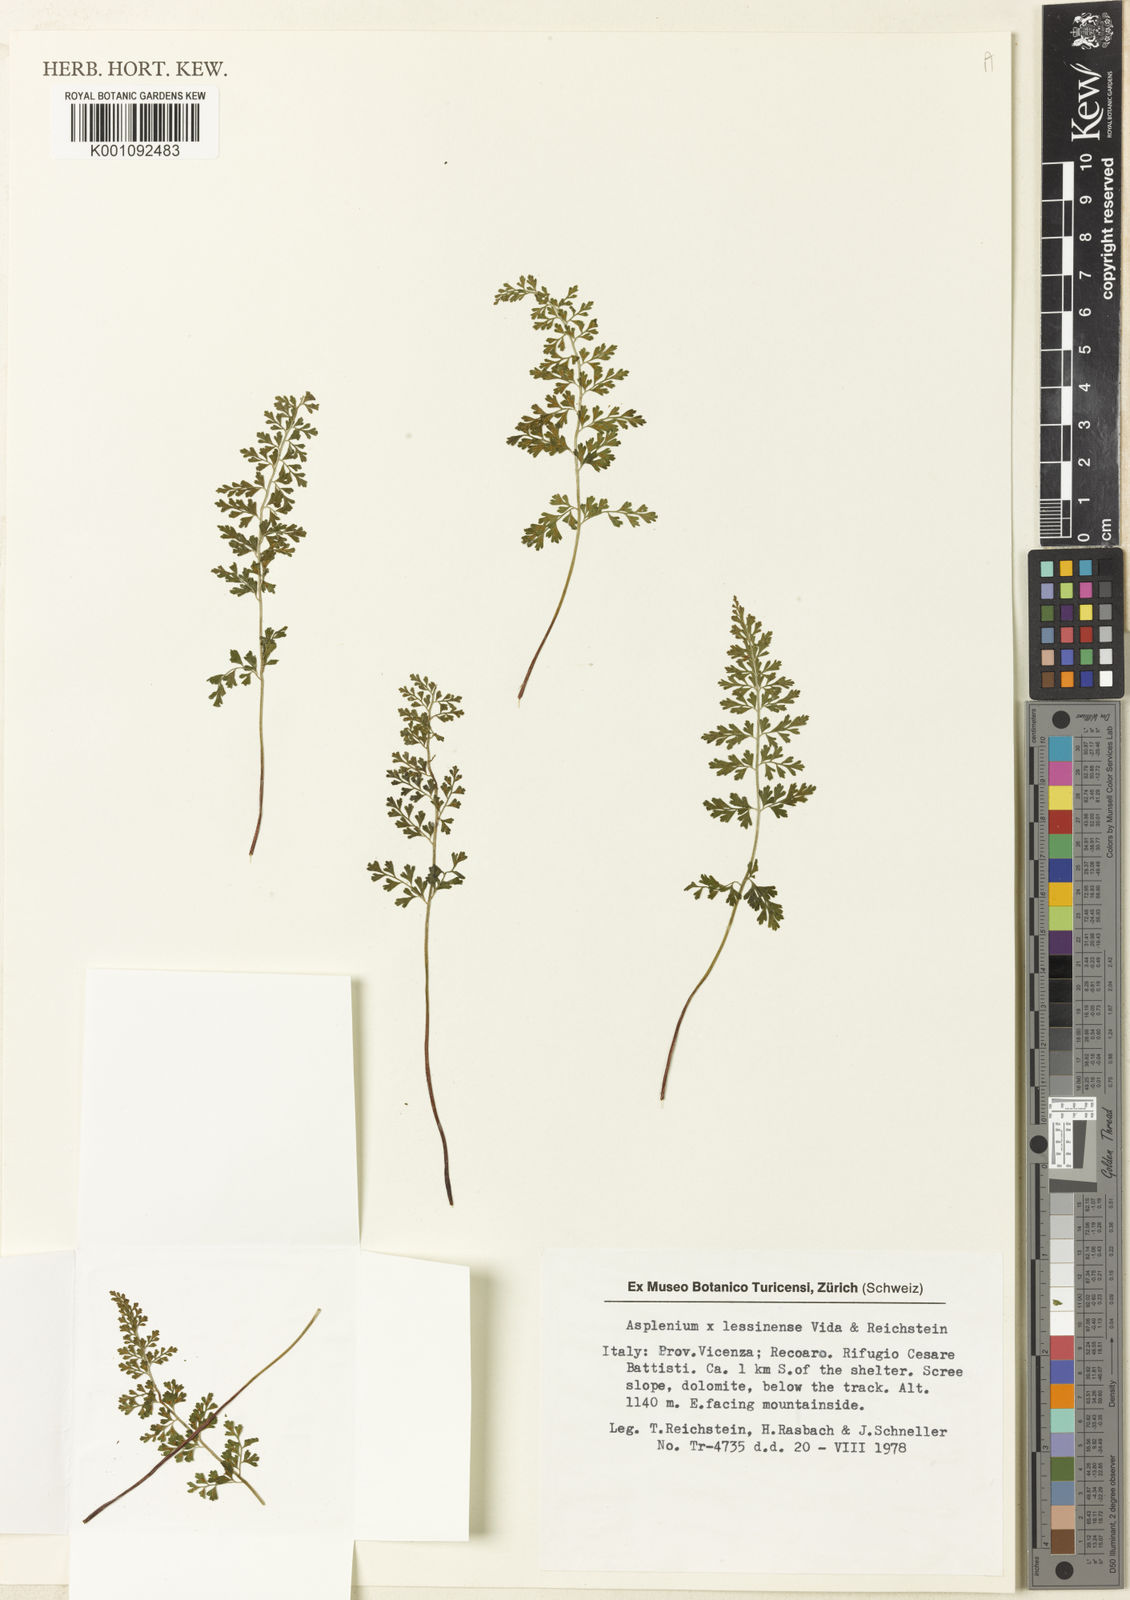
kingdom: Plantae
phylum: Tracheophyta
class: Polypodiopsida
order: Polypodiales
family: Aspleniaceae
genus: Asplenium
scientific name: Asplenium lessinense
